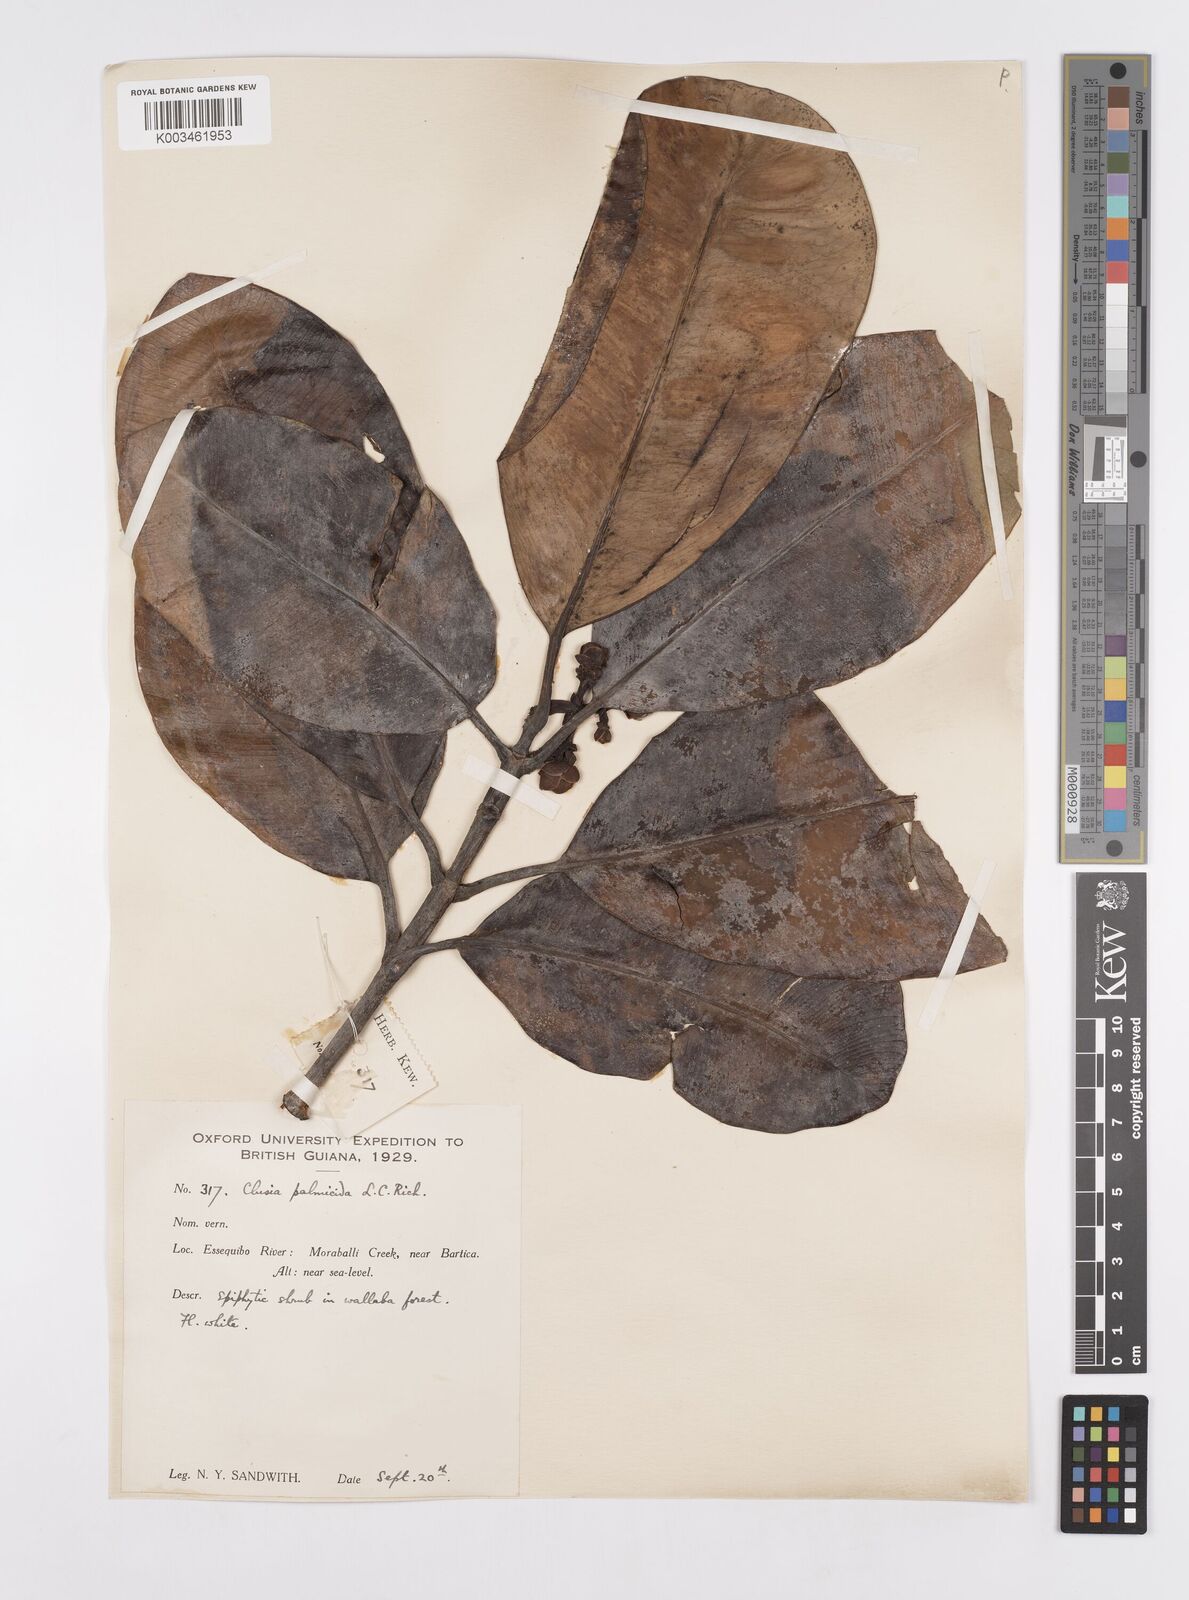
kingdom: Plantae
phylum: Tracheophyta
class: Magnoliopsida
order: Malpighiales
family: Clusiaceae
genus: Clusia
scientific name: Clusia palmicida
